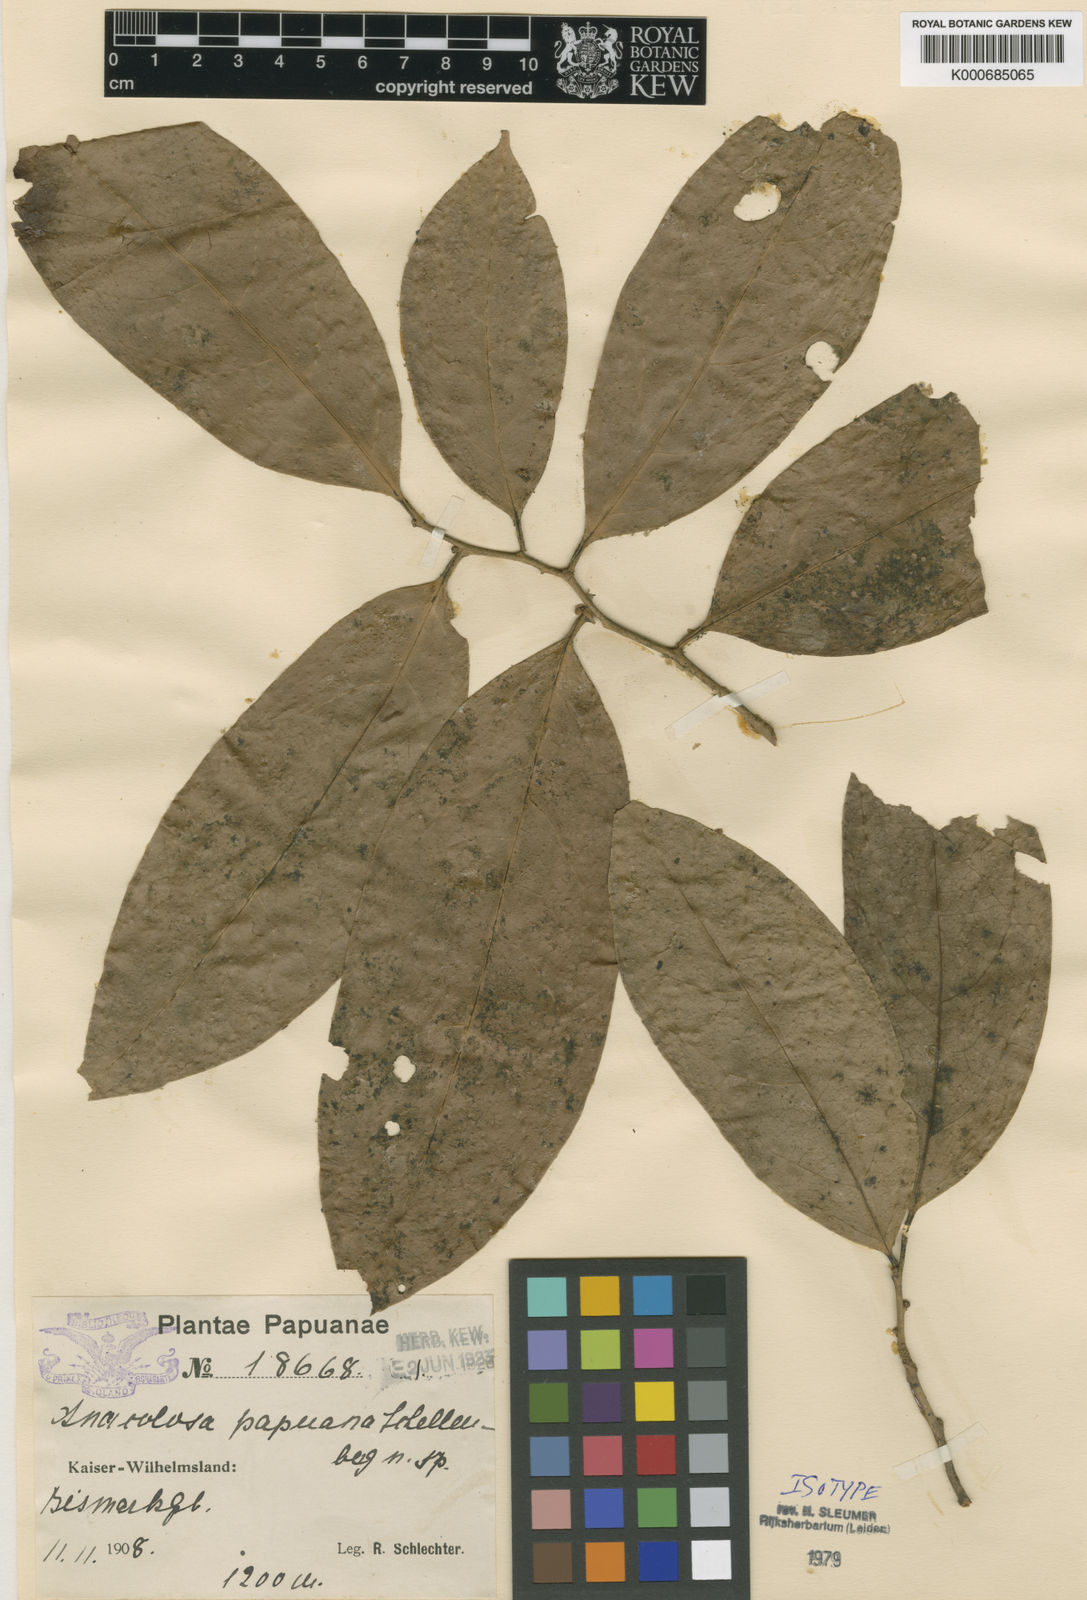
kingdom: Plantae
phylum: Tracheophyta
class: Magnoliopsida
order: Santalales
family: Aptandraceae
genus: Anacolosa
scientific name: Anacolosa papuana
